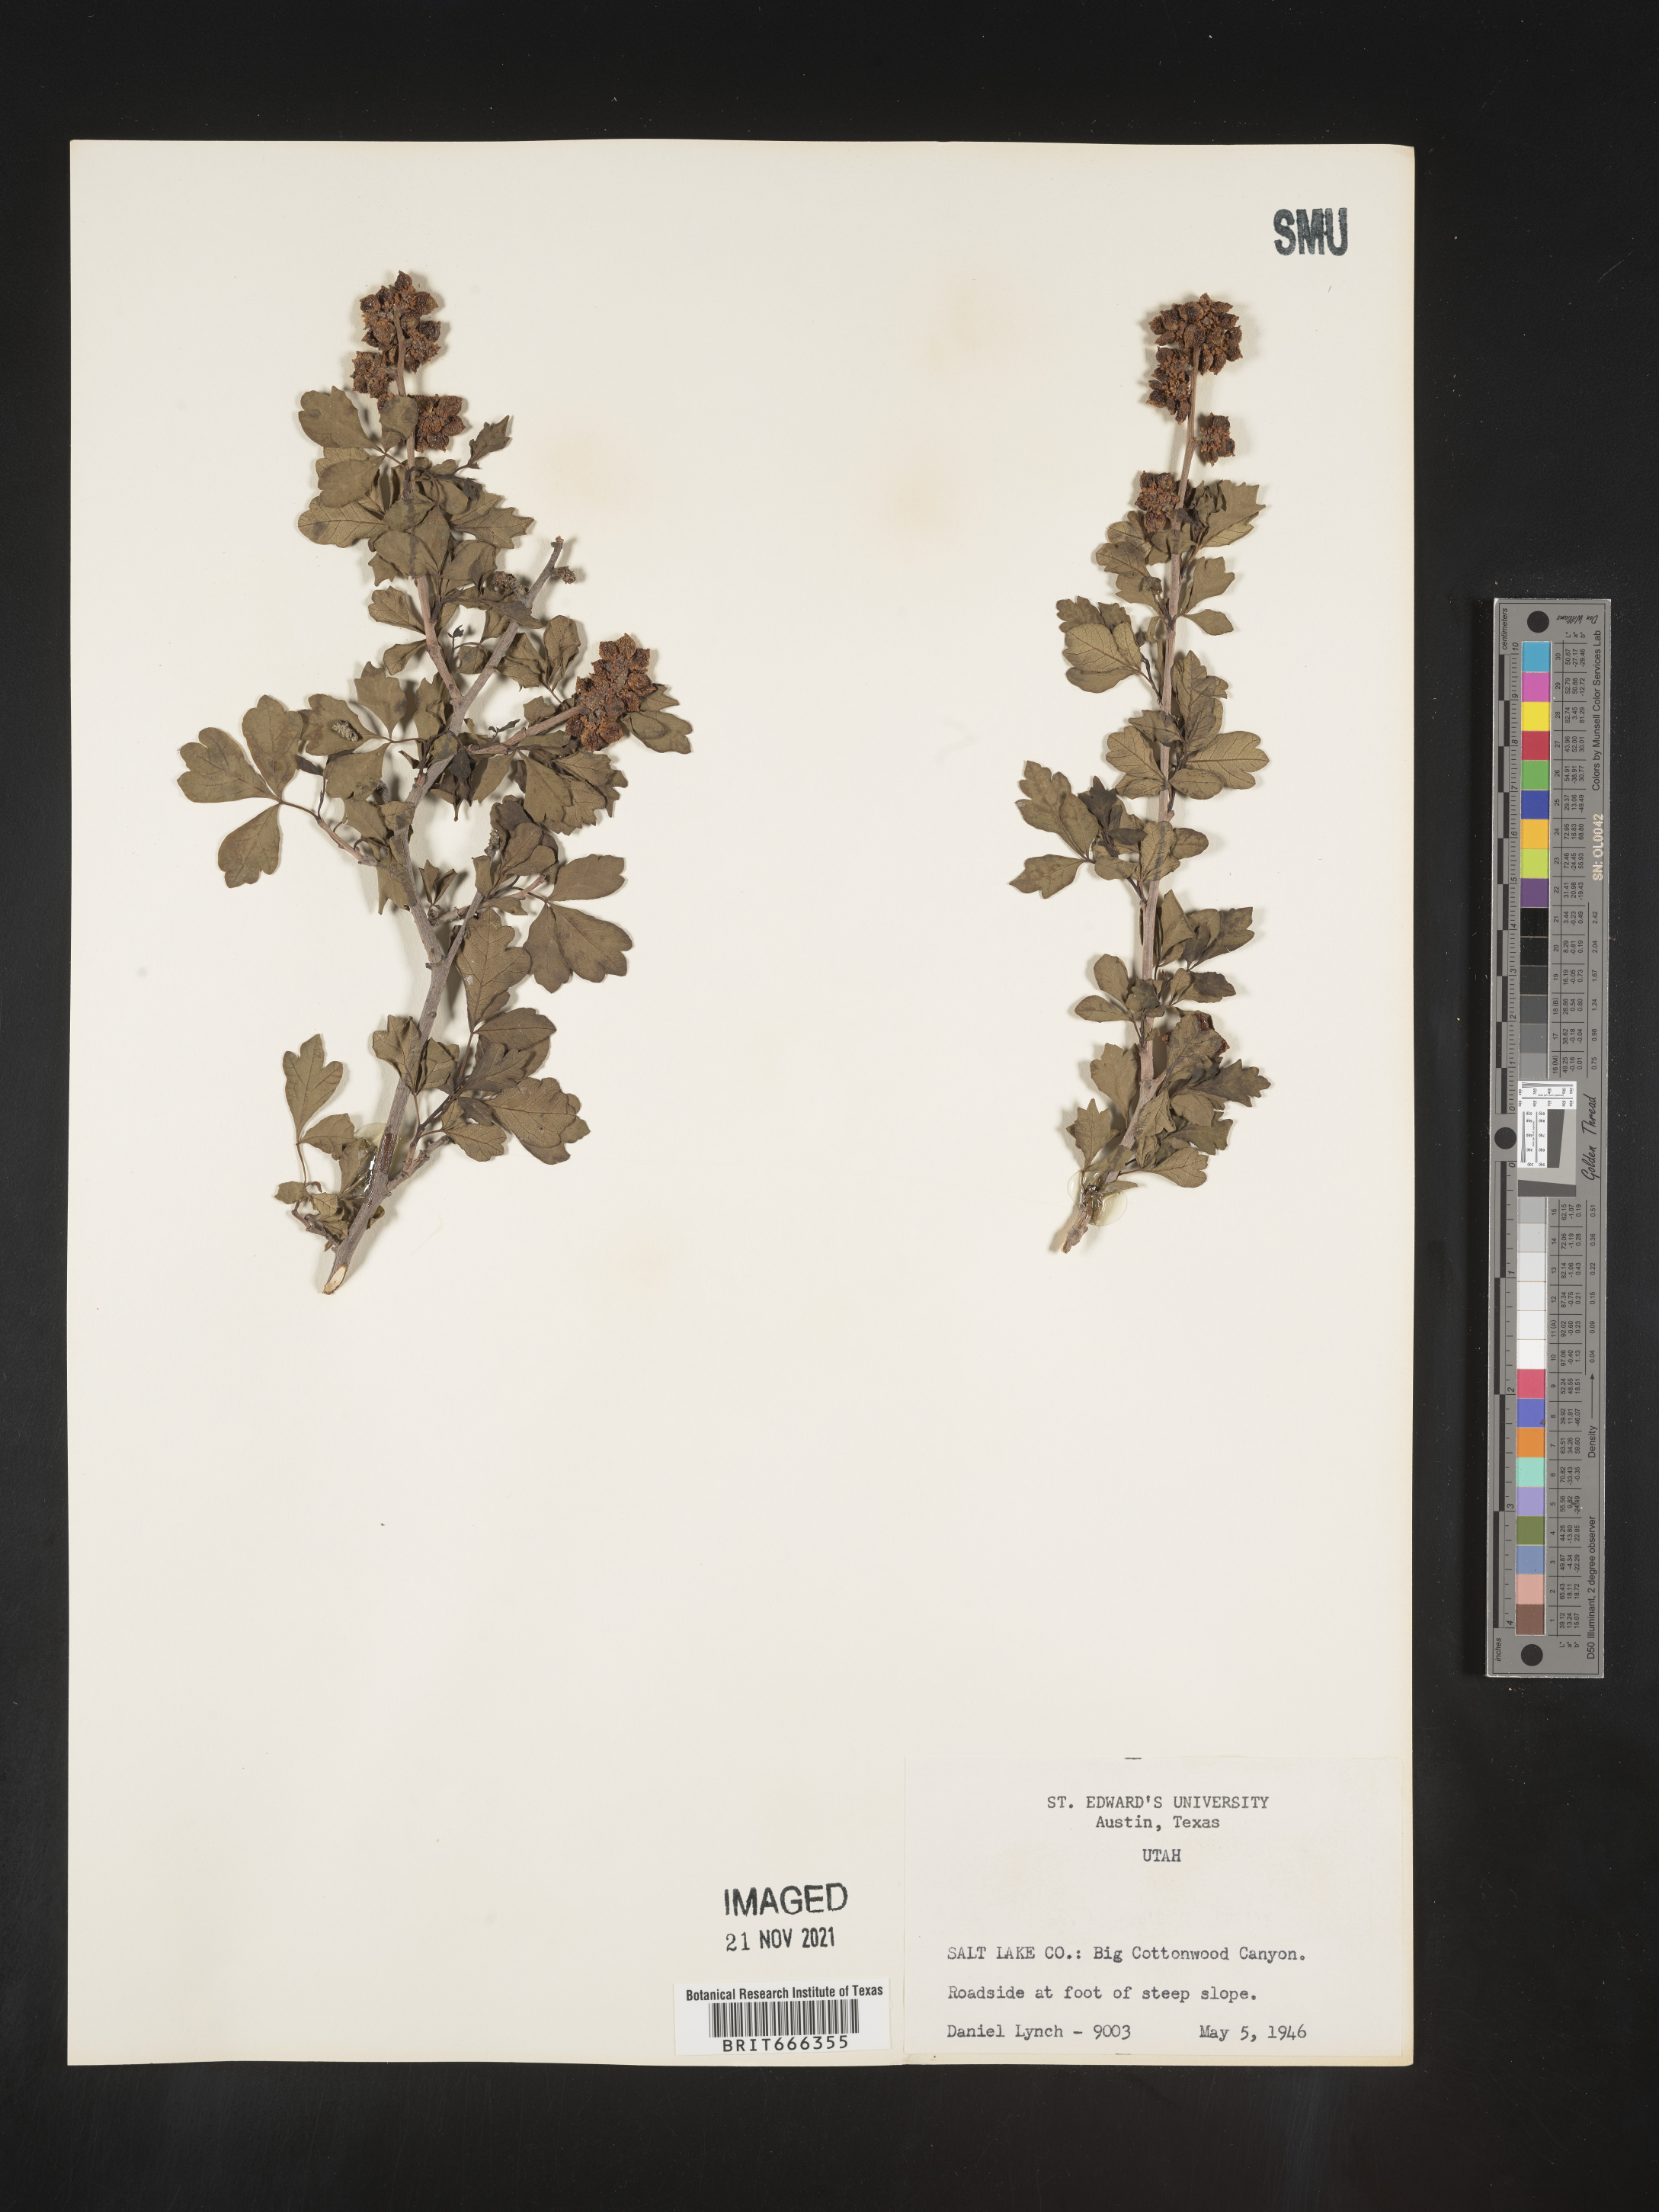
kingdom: Plantae
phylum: Tracheophyta
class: Magnoliopsida
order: Sapindales
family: Anacardiaceae
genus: Rhus
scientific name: Rhus trilobata
